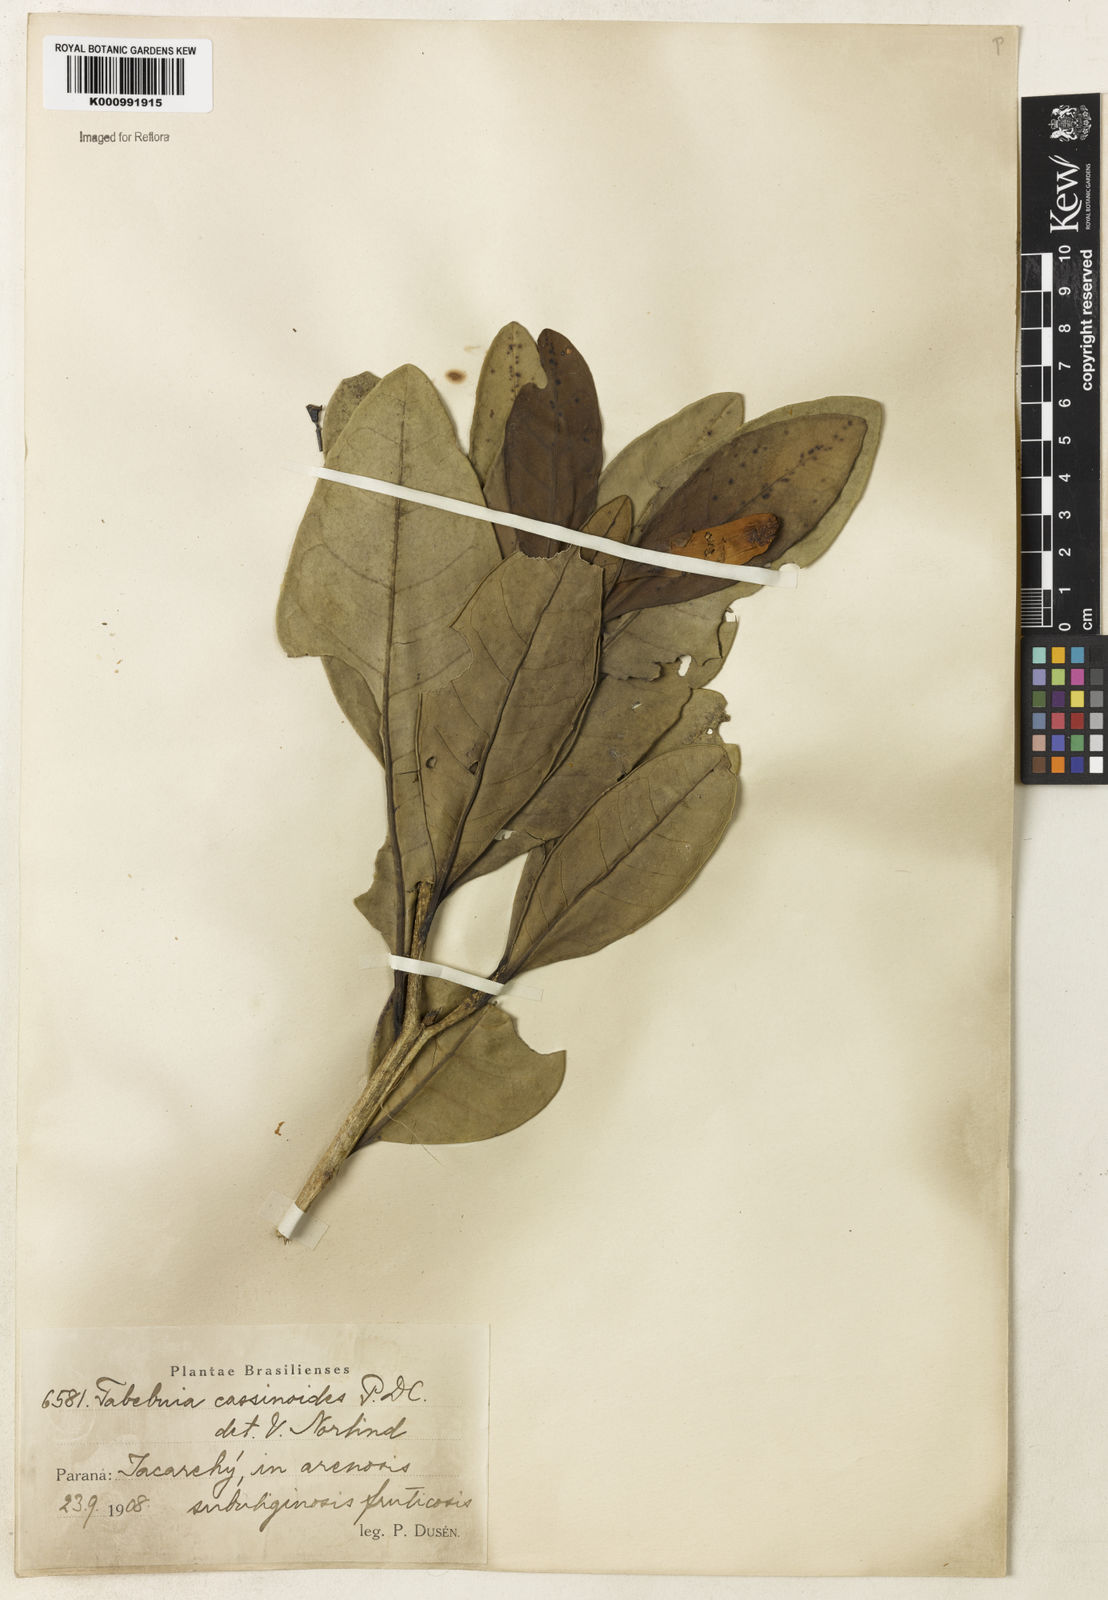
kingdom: Plantae
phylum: Tracheophyta
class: Magnoliopsida
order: Lamiales
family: Bignoniaceae
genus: Tabebuia
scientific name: Tabebuia cassinoides
